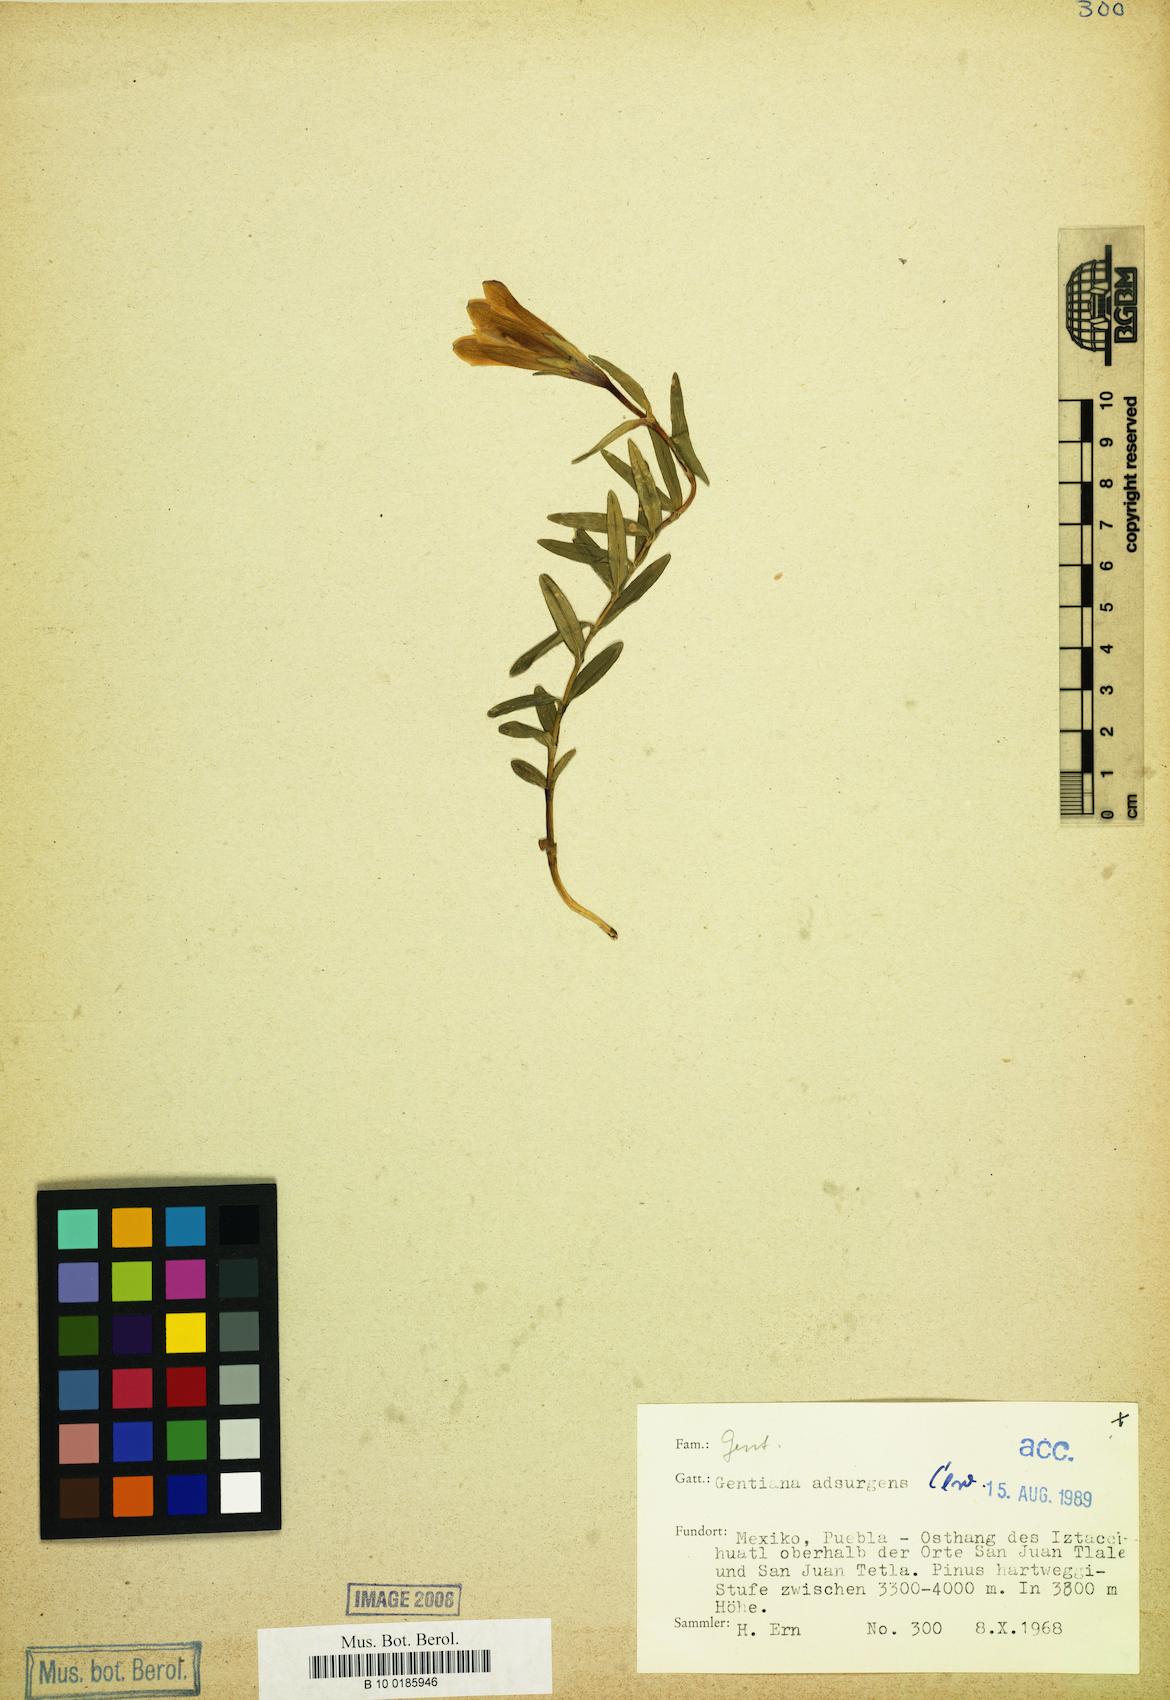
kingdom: Plantae
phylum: Tracheophyta
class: Magnoliopsida
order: Gentianales
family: Gentianaceae
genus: Gentiana
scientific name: Gentiana bicuspidata
